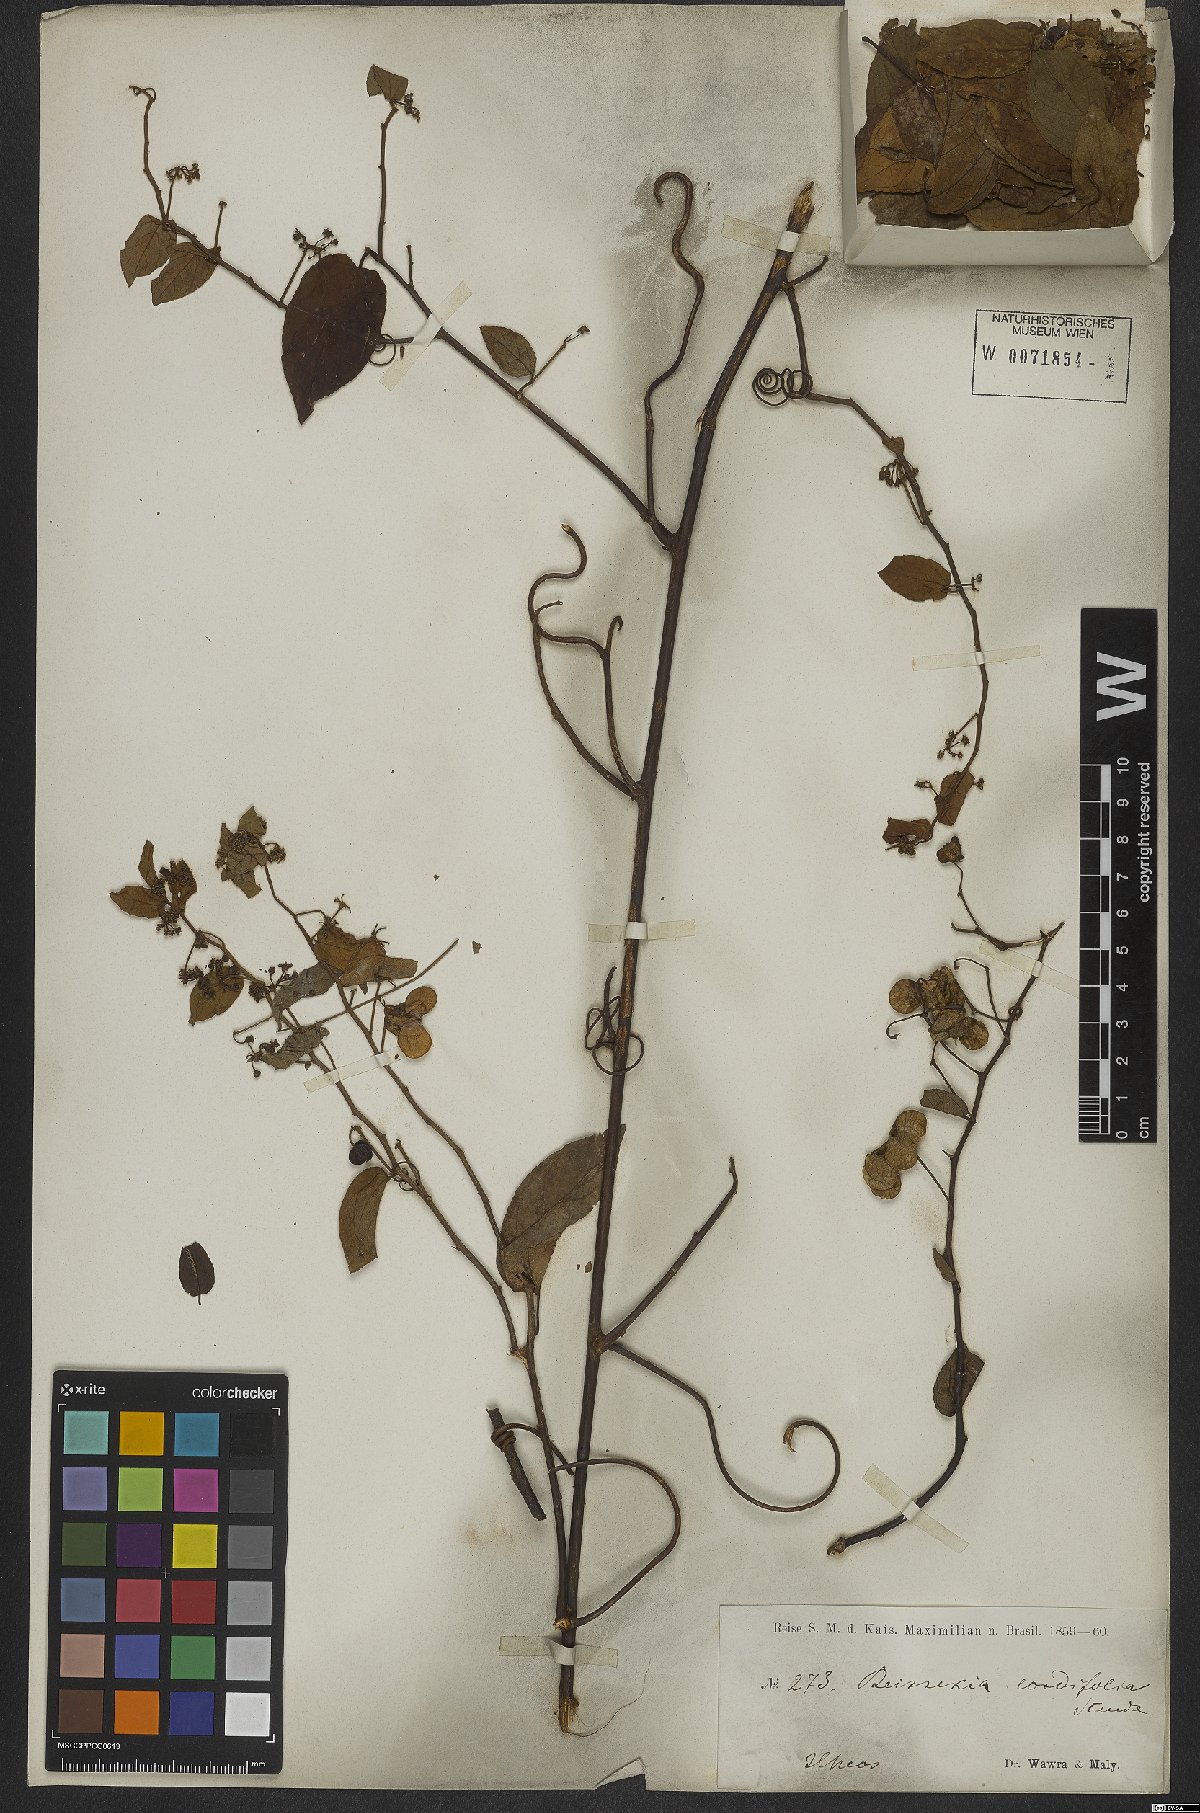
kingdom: Plantae
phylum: Tracheophyta
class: Magnoliopsida
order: Rosales
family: Rhamnaceae
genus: Reissekia
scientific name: Reissekia smilacina
